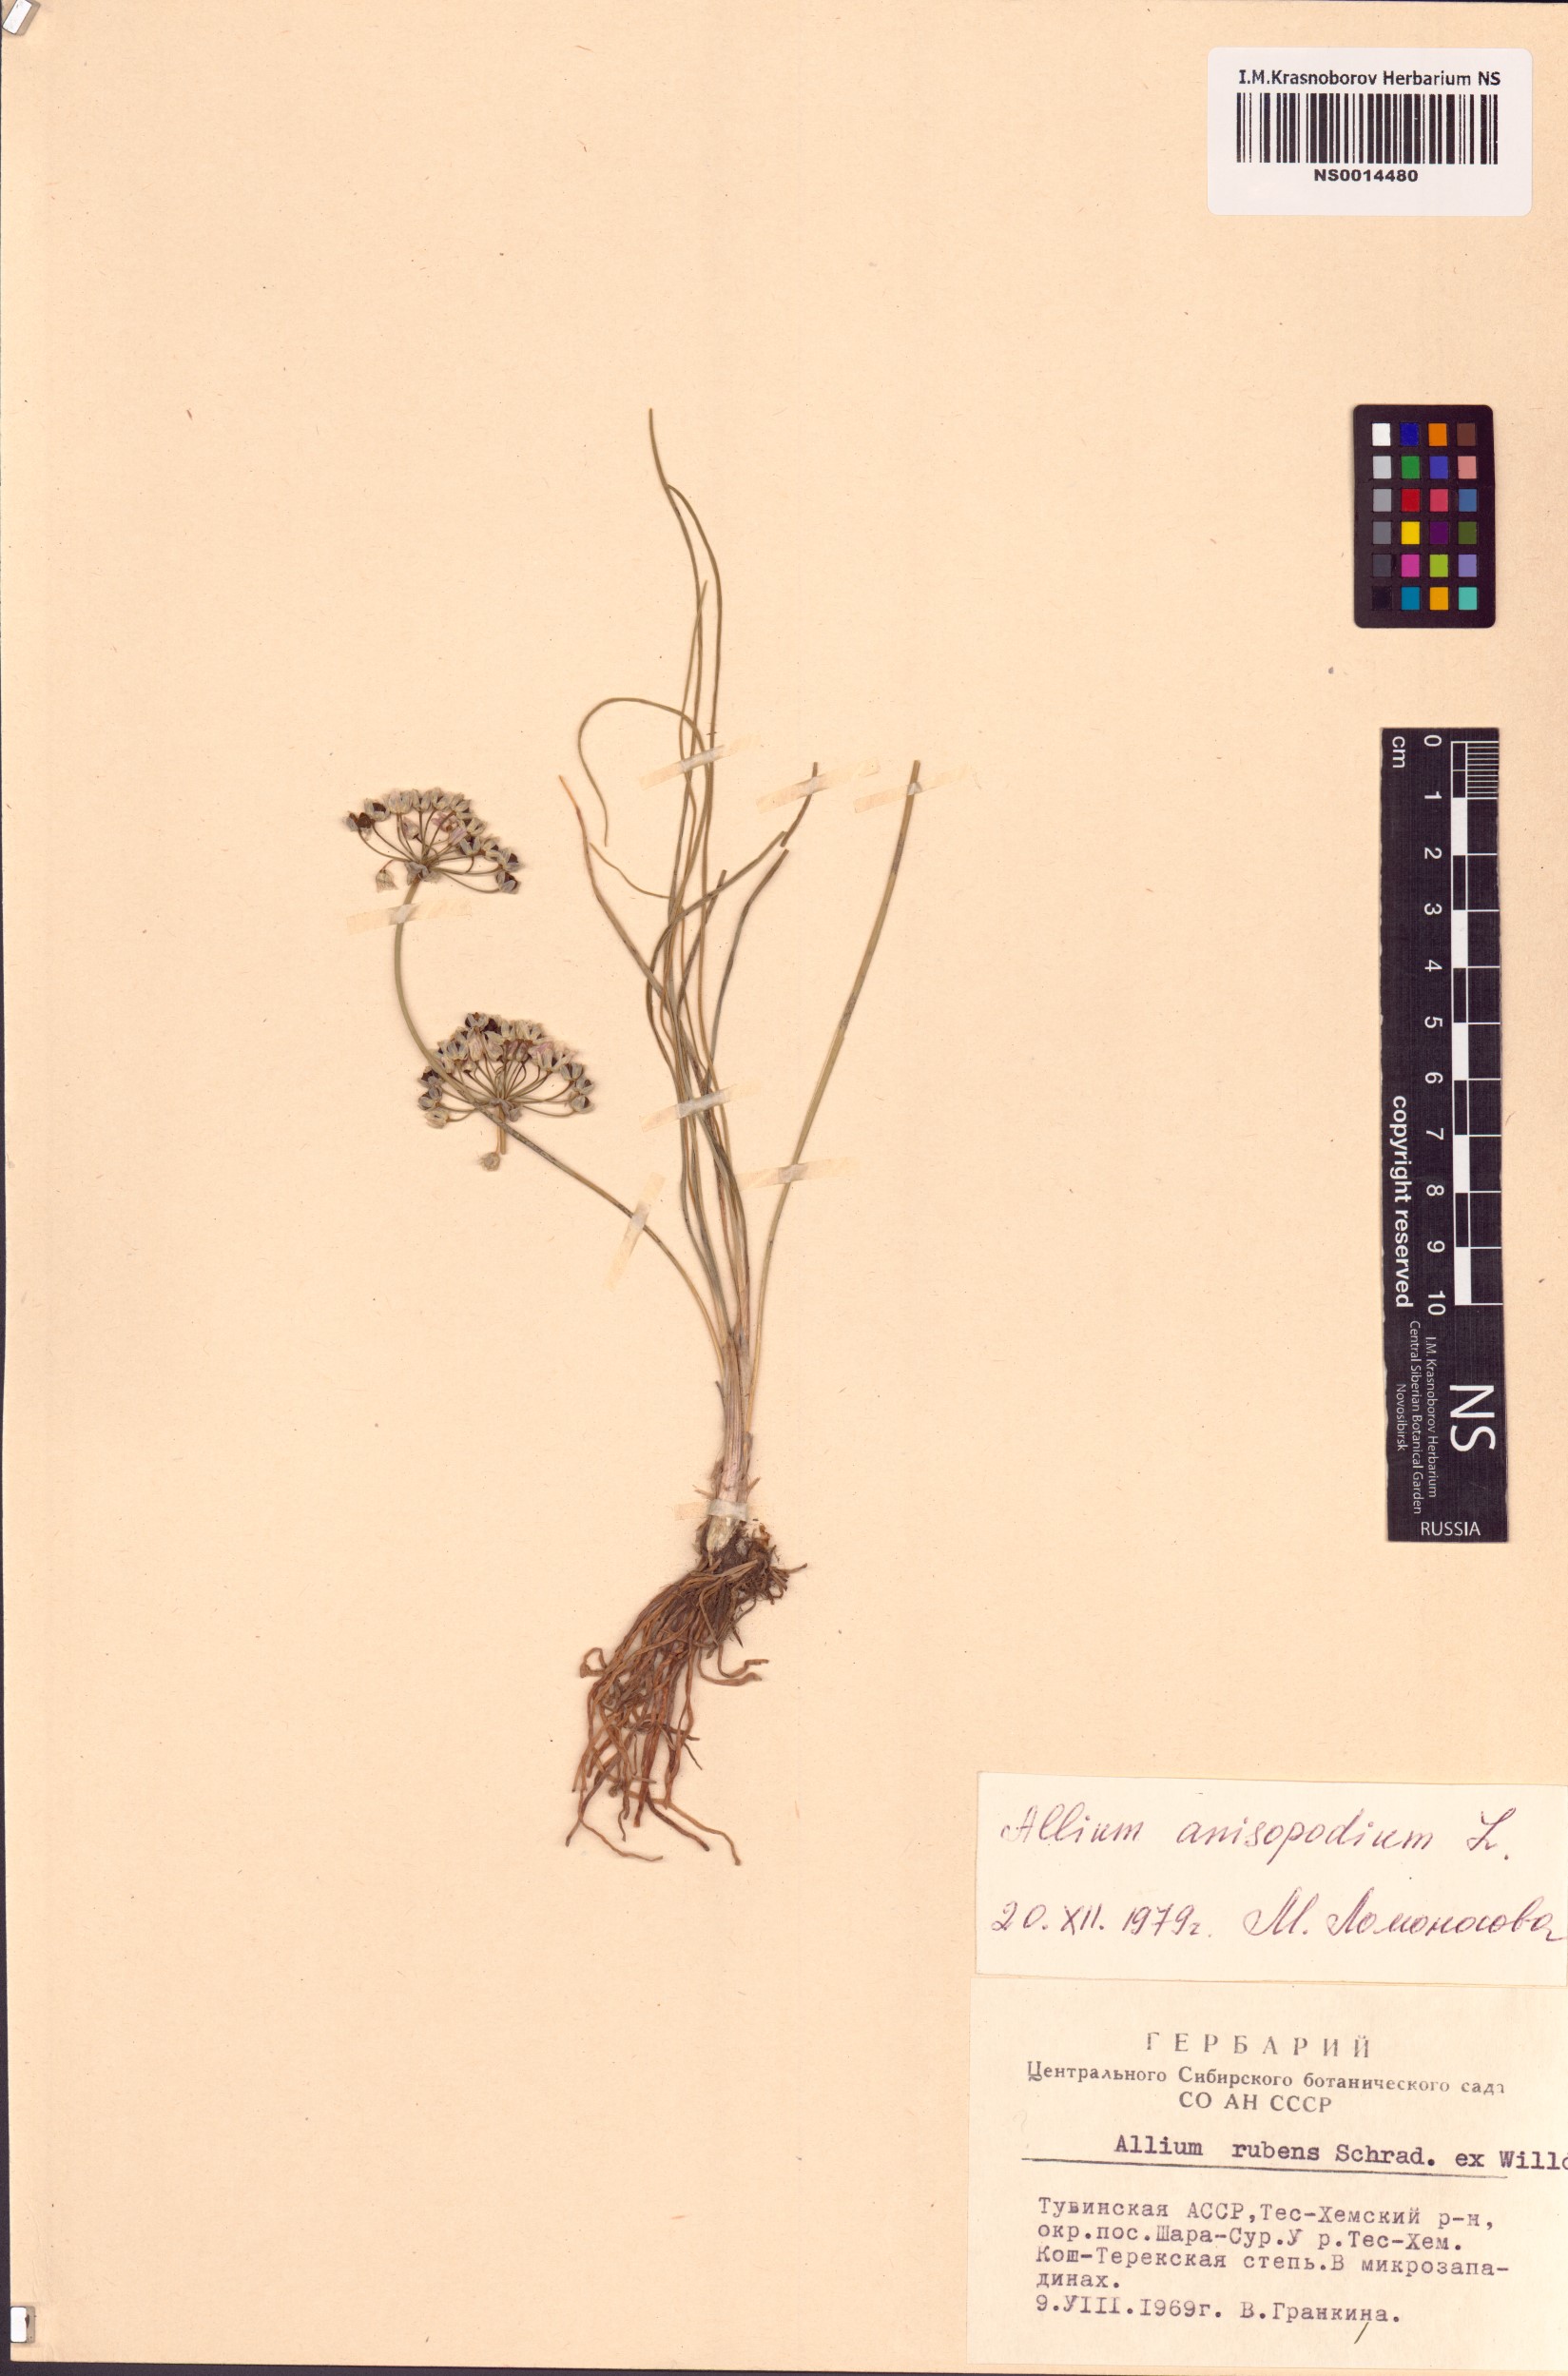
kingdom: Plantae
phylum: Tracheophyta
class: Liliopsida
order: Asparagales
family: Amaryllidaceae
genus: Allium
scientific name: Allium anisopodium
